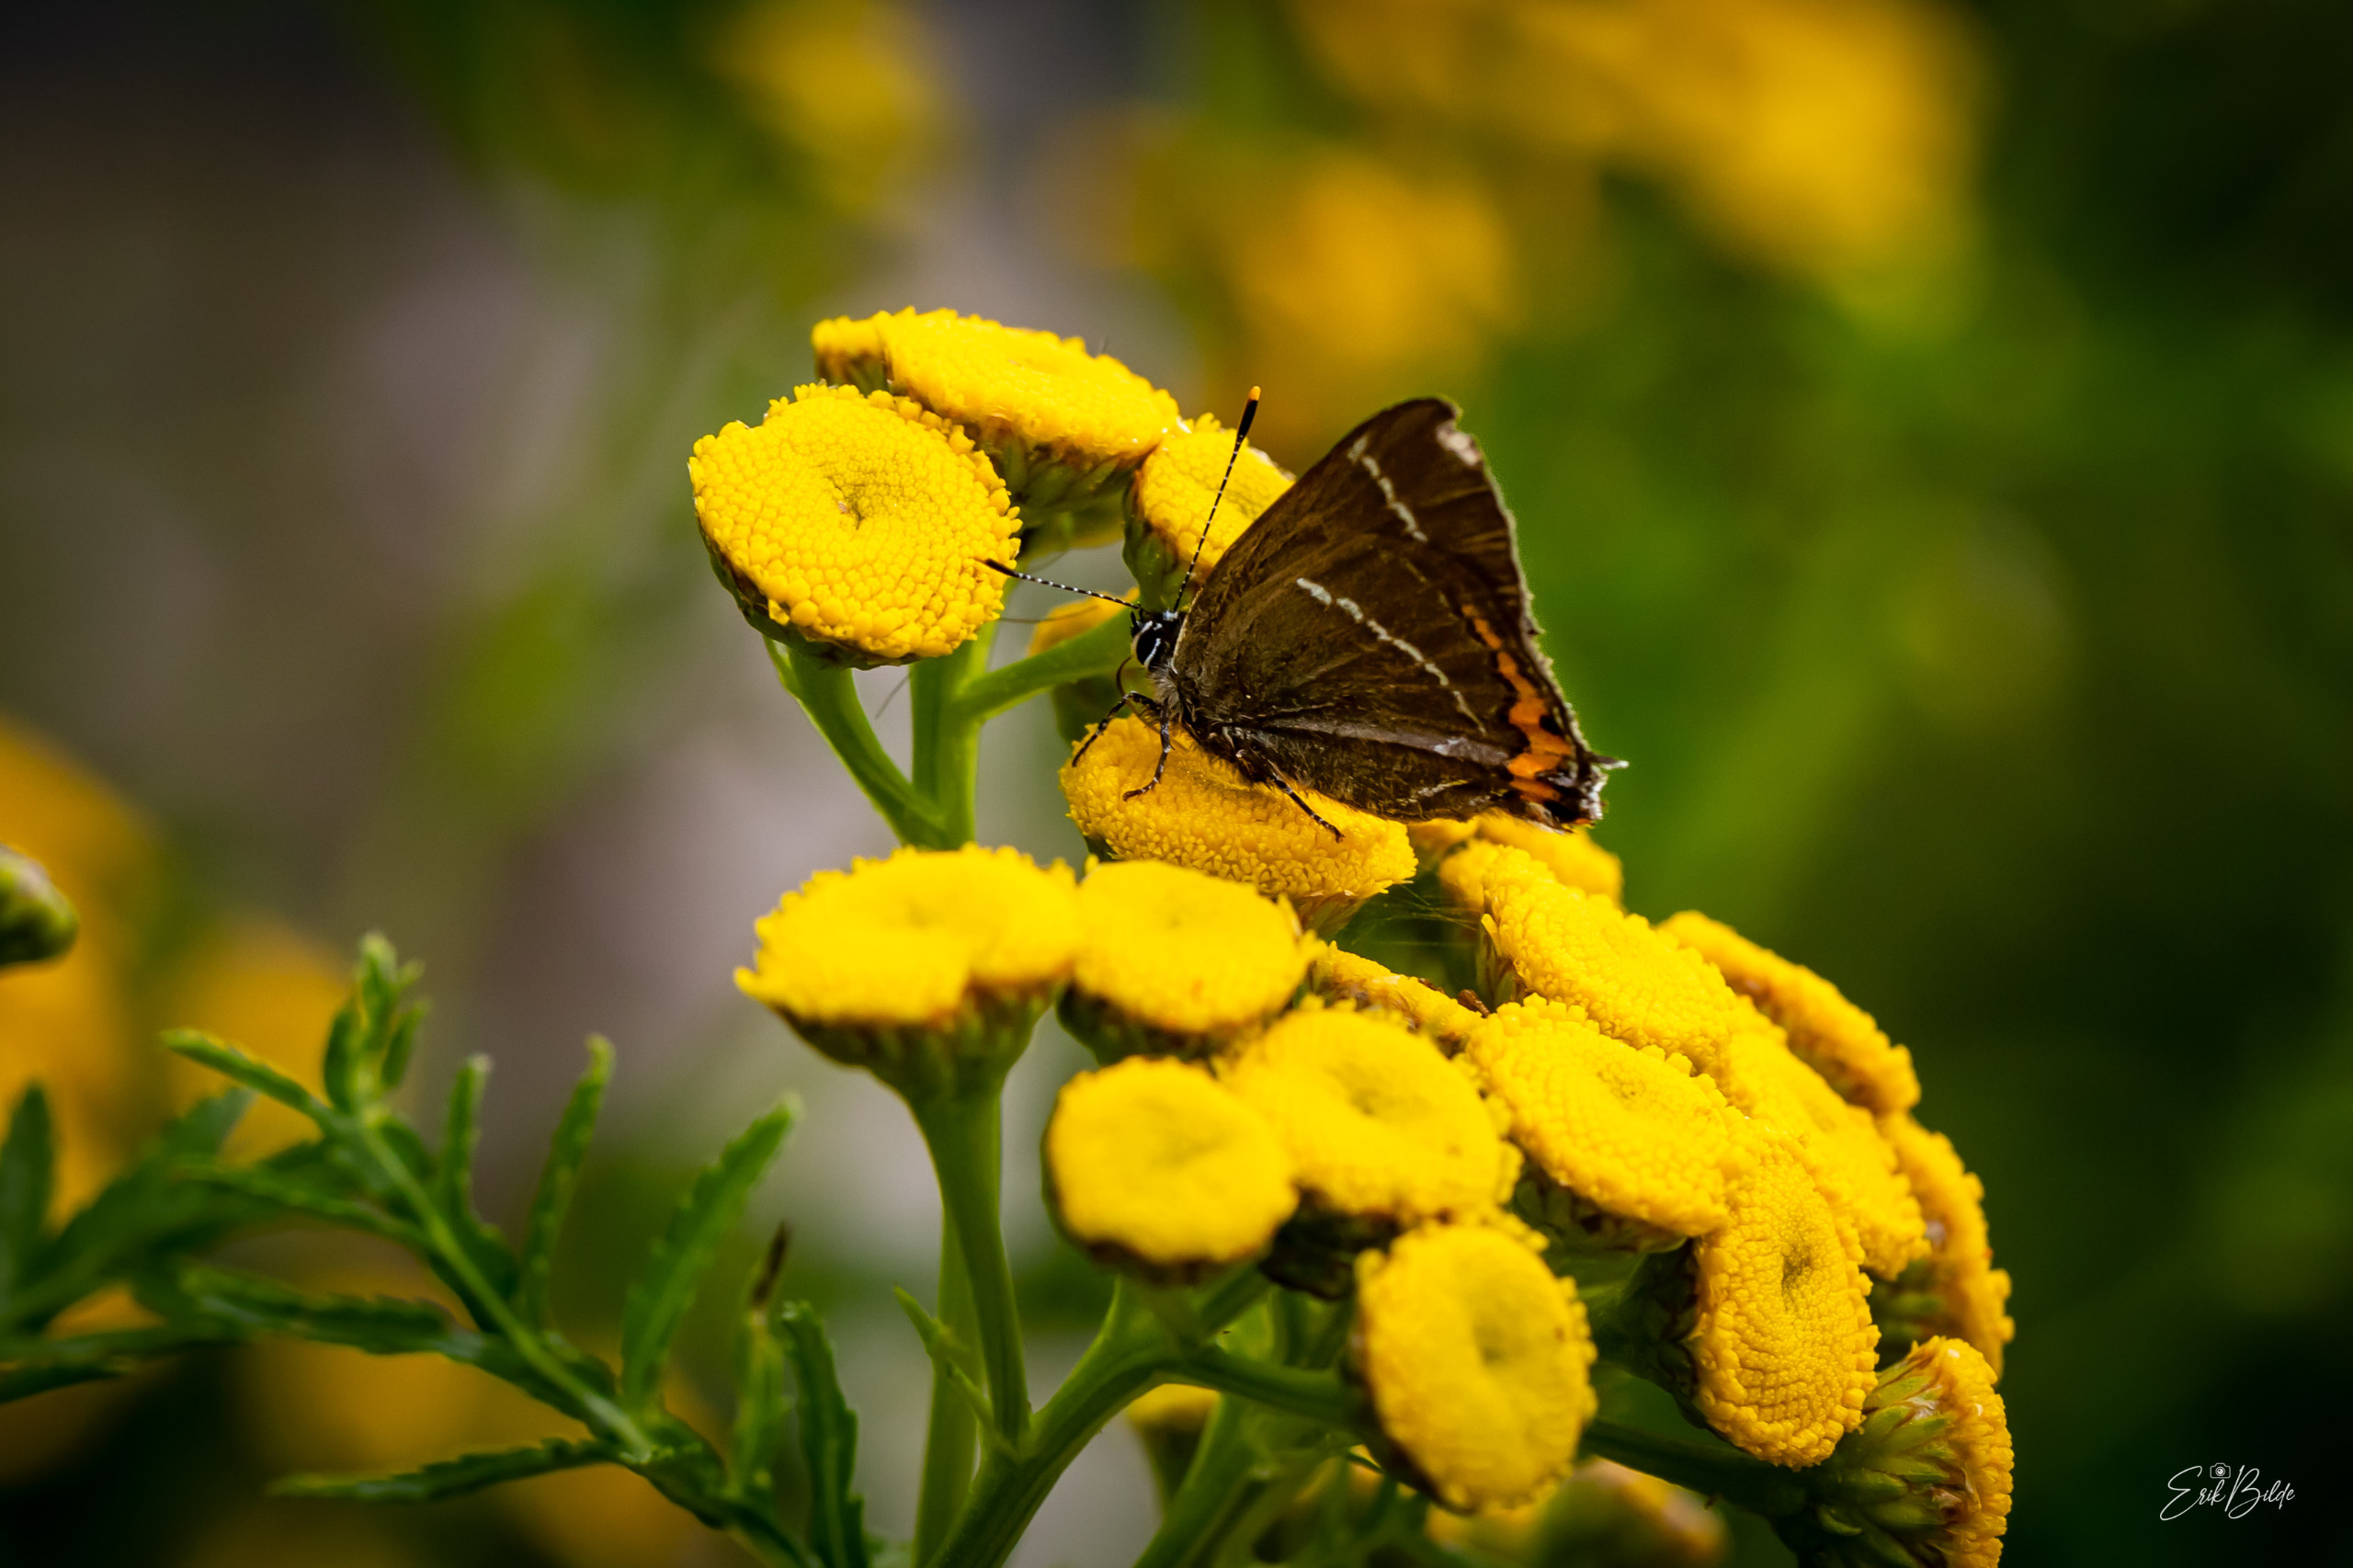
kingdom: Animalia
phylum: Arthropoda
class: Insecta
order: Lepidoptera
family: Lycaenidae
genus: Satyrium
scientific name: Satyrium w-album
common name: Det hvide W
